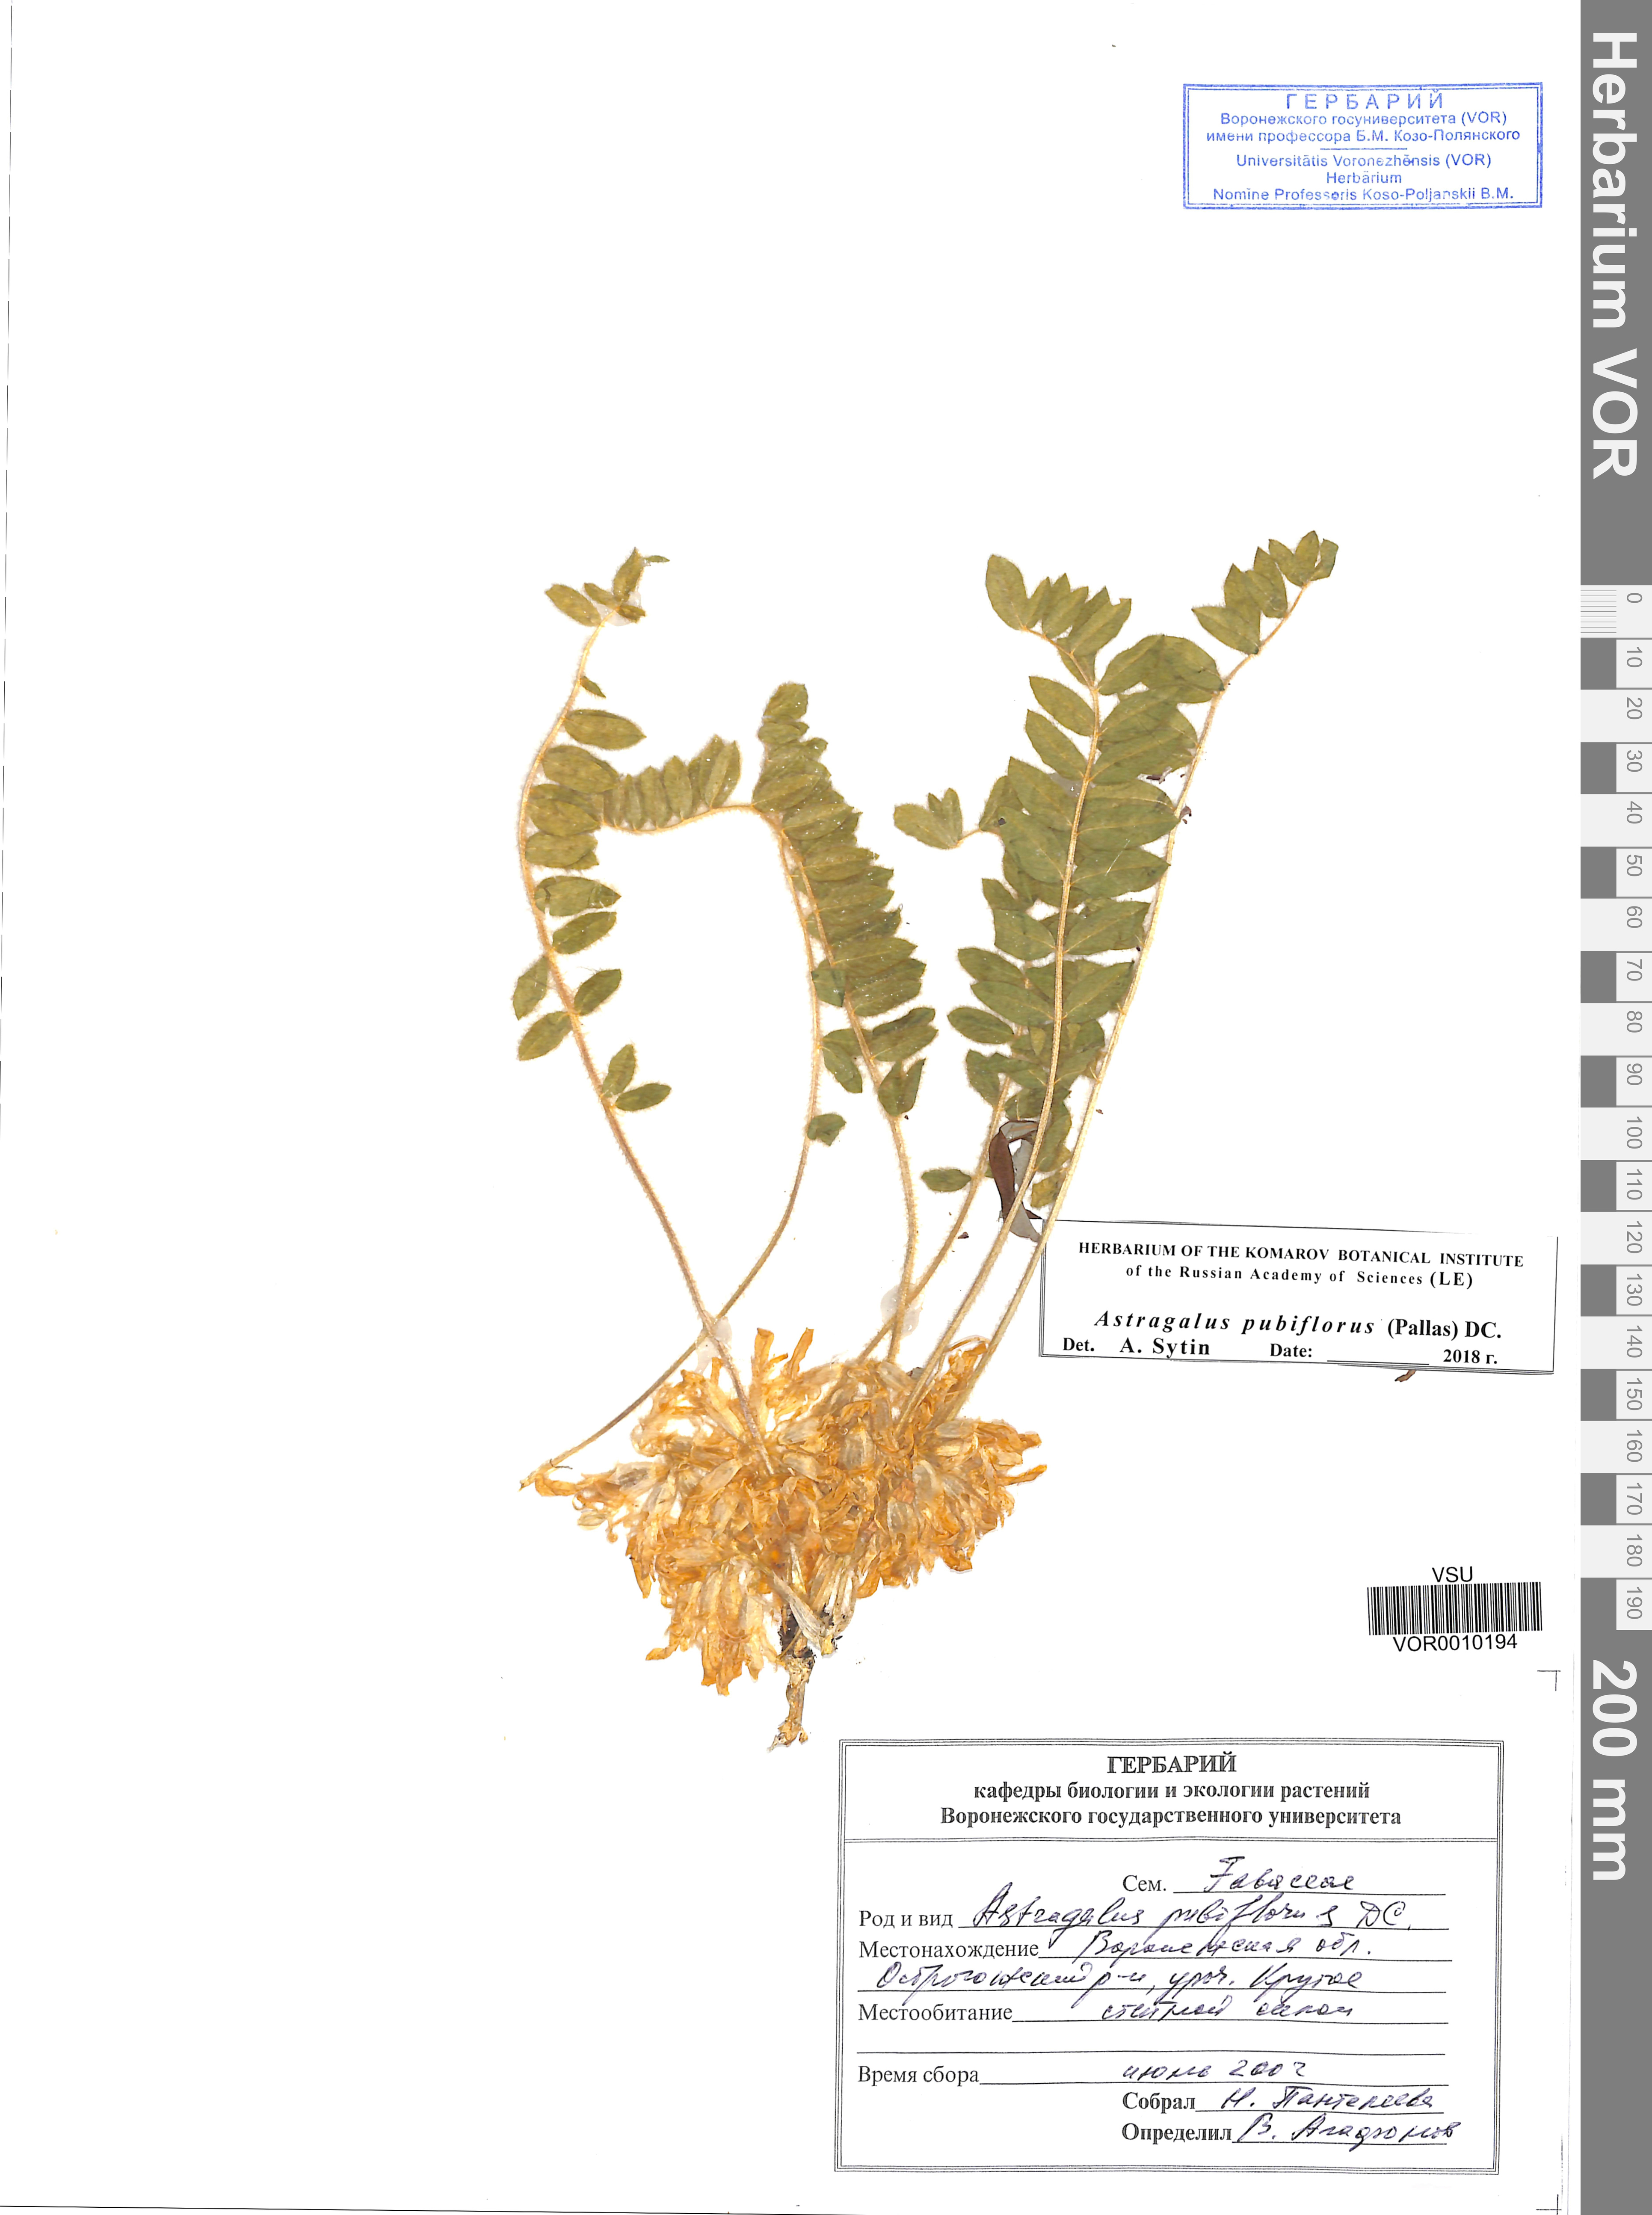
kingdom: Plantae
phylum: Tracheophyta
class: Magnoliopsida
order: Fabales
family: Fabaceae
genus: Astragalus
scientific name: Astragalus exscapus
